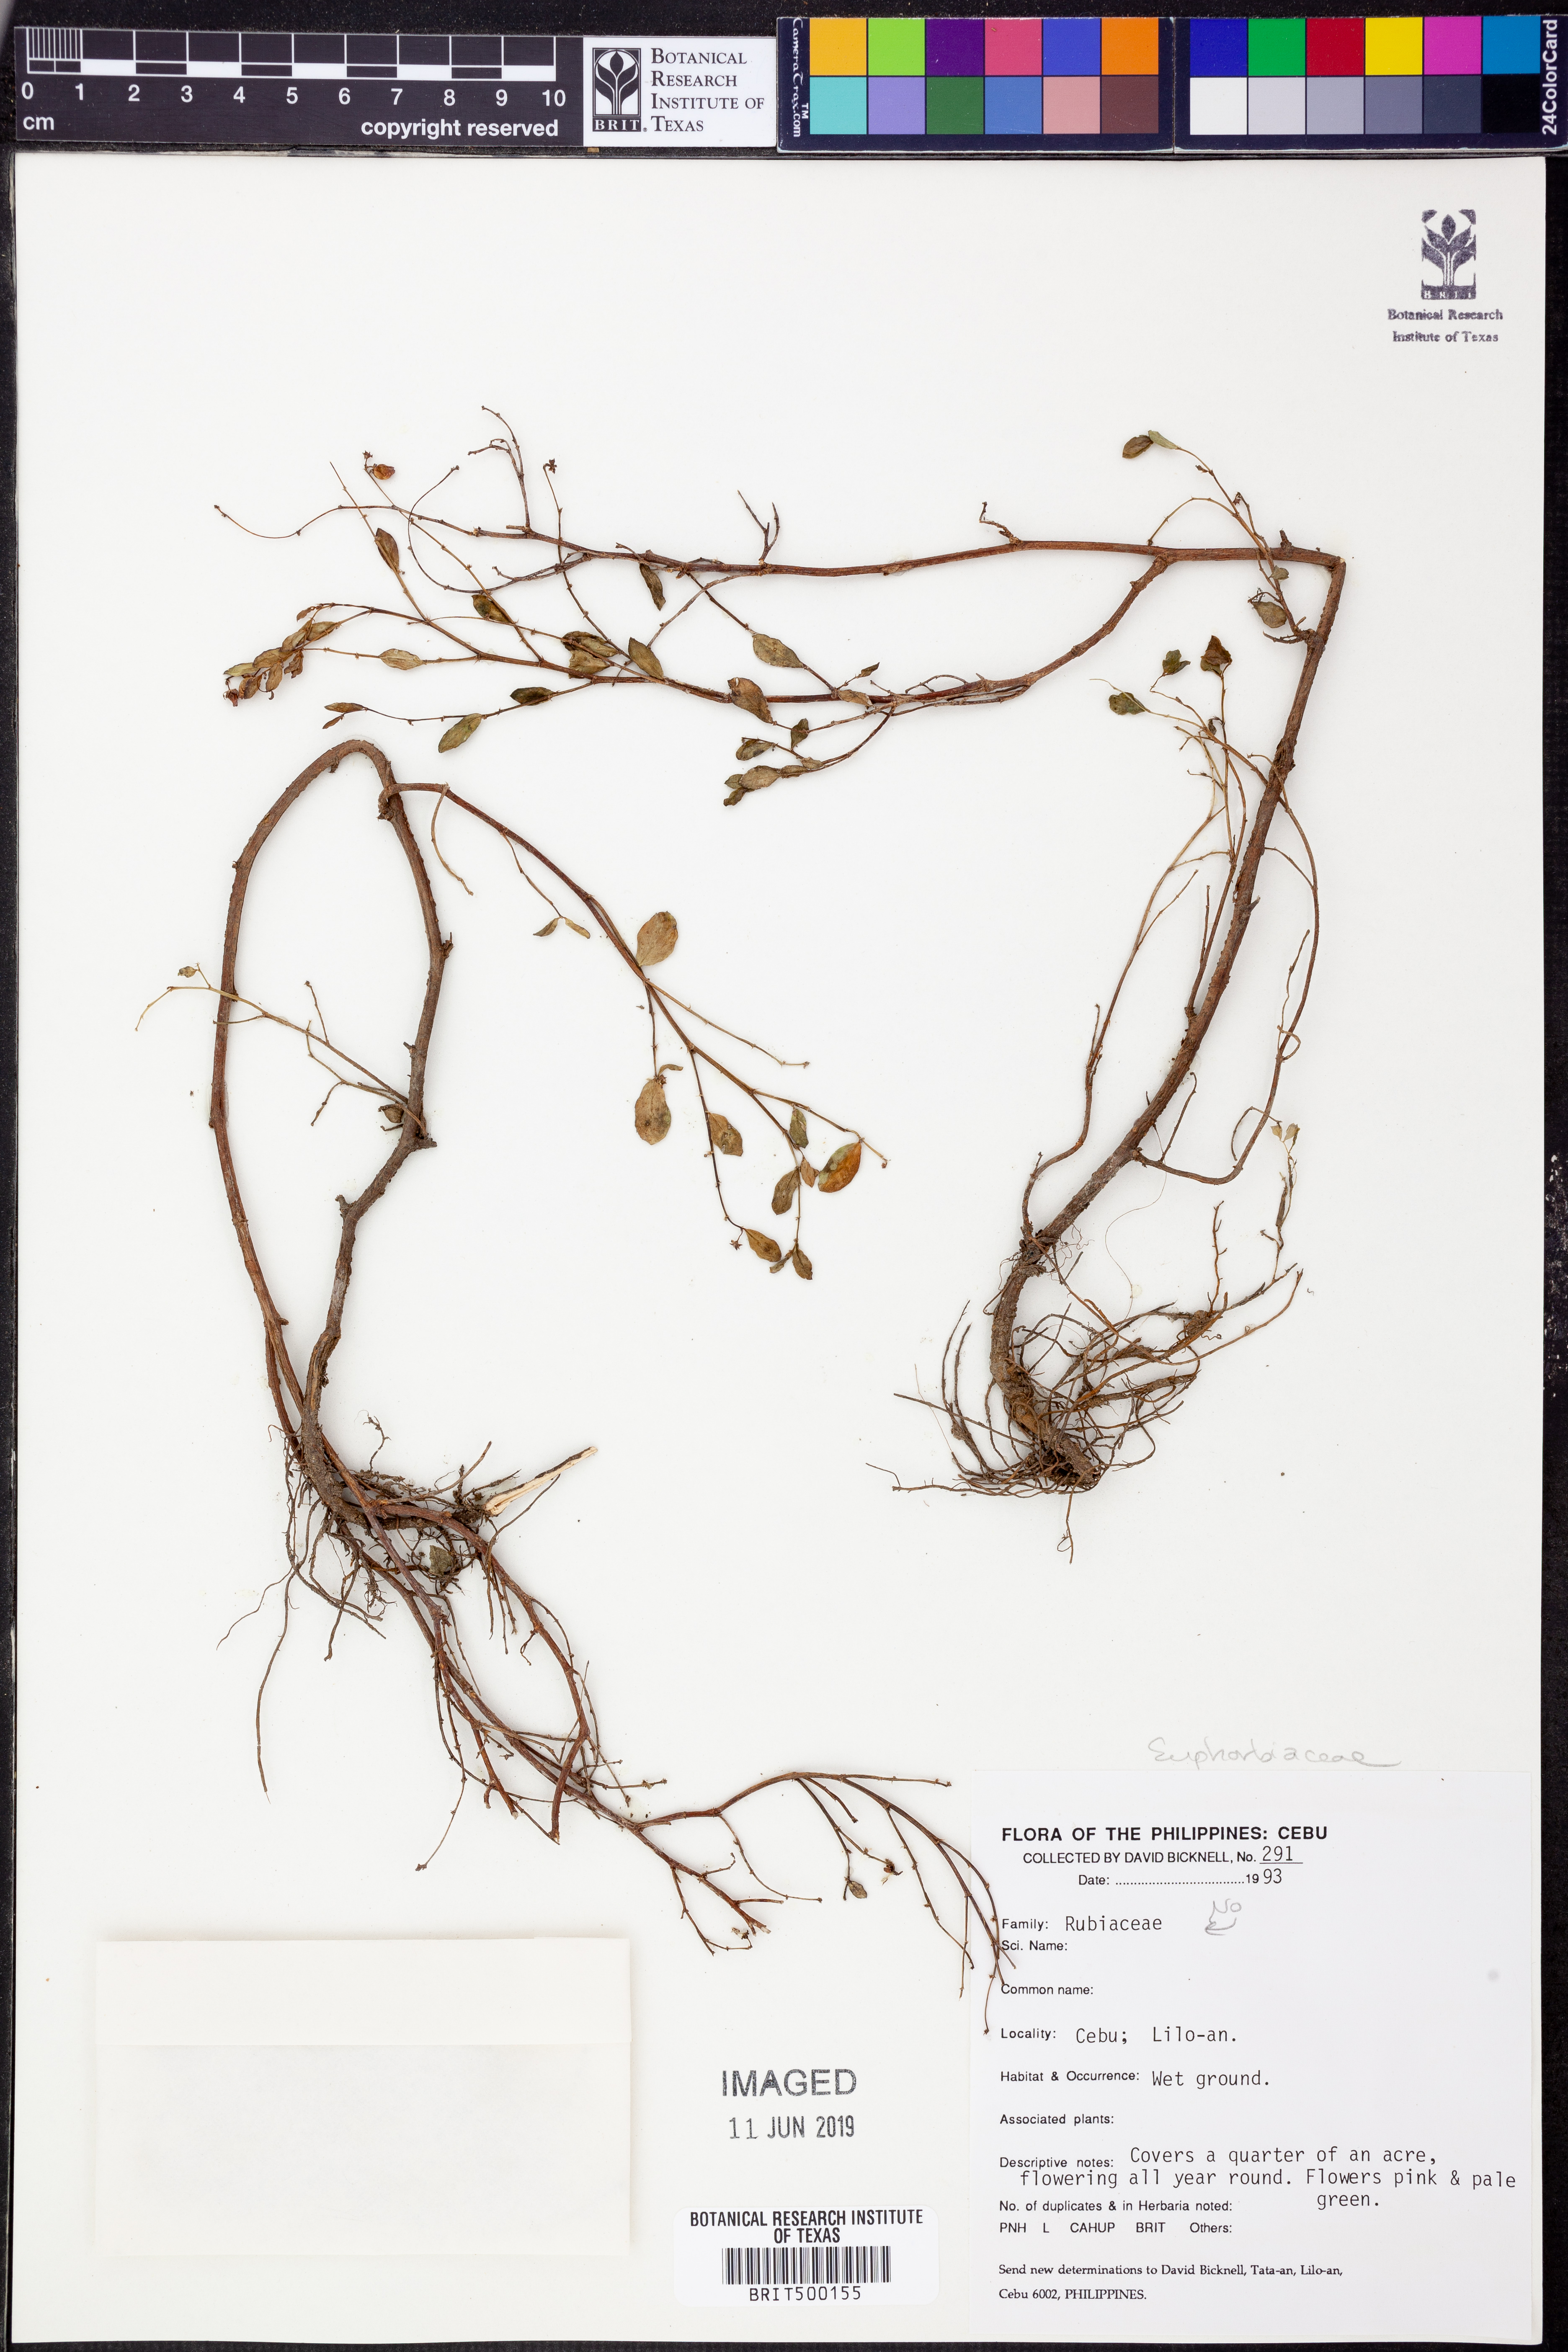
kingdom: Plantae
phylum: Tracheophyta
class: Magnoliopsida
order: Malpighiales
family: Euphorbiaceae
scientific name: Euphorbiaceae
